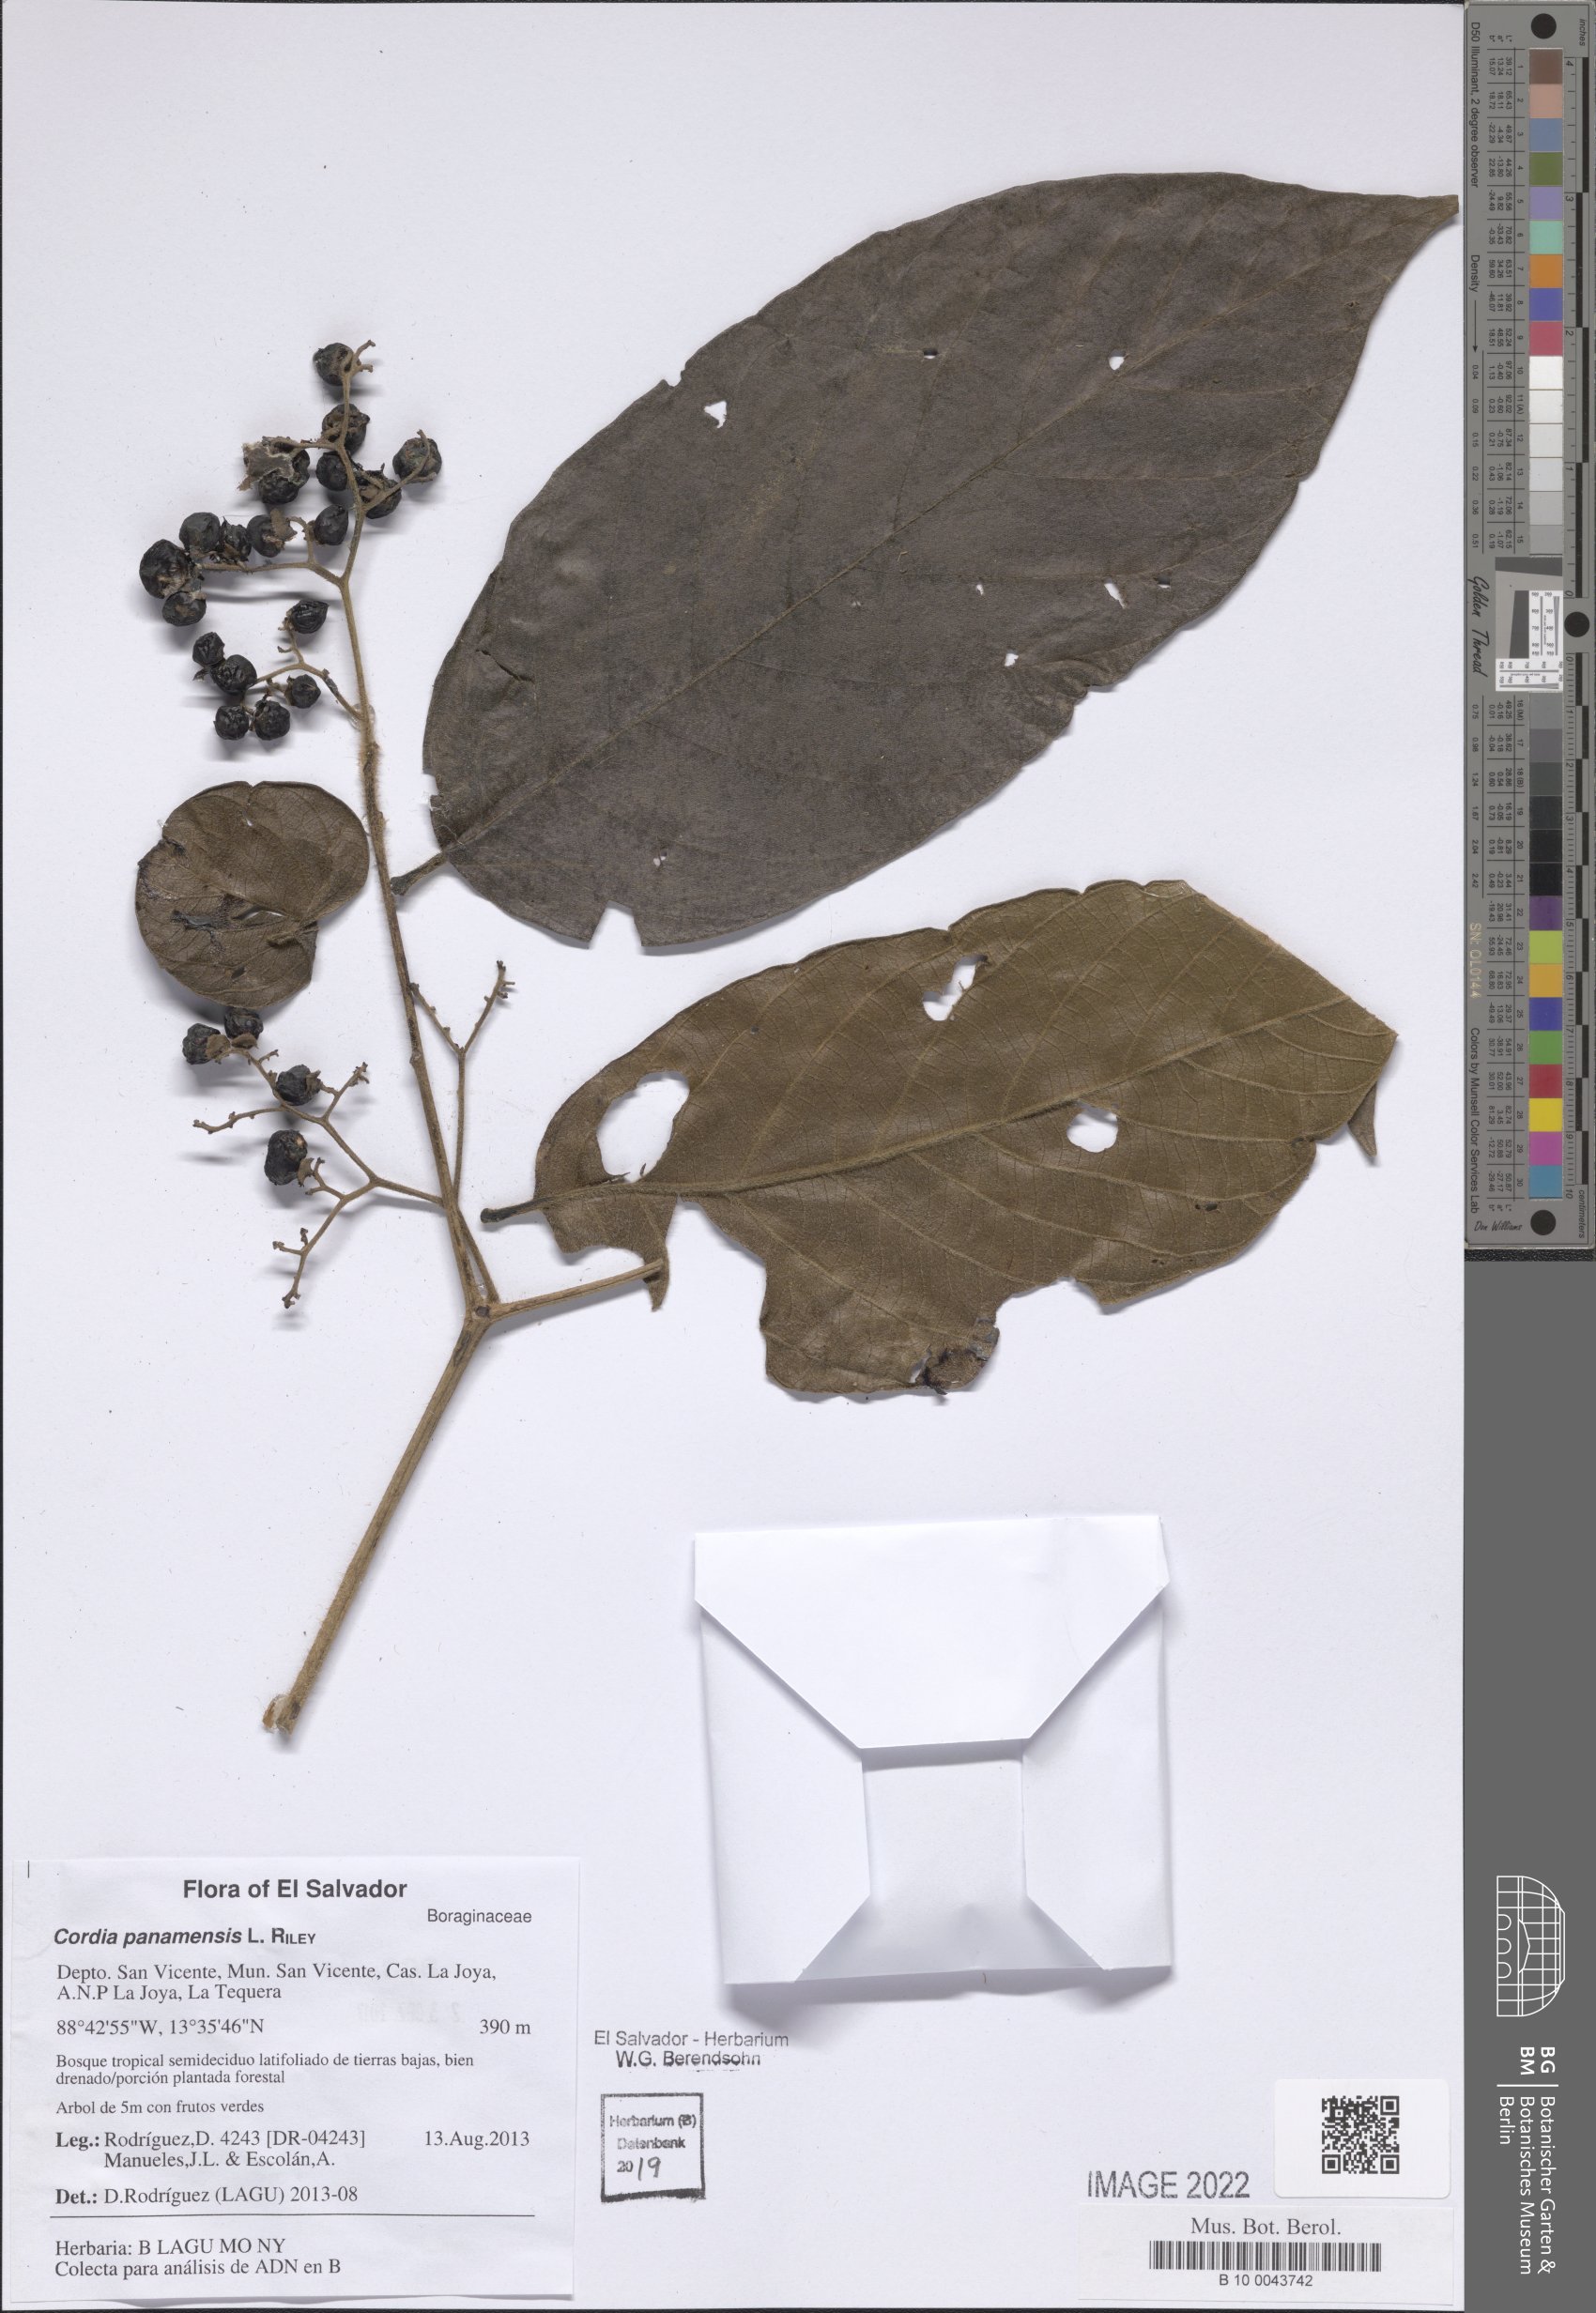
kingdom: Plantae
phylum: Tracheophyta
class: Magnoliopsida
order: Boraginales
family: Cordiaceae
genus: Cordia
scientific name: Cordia panamensis
